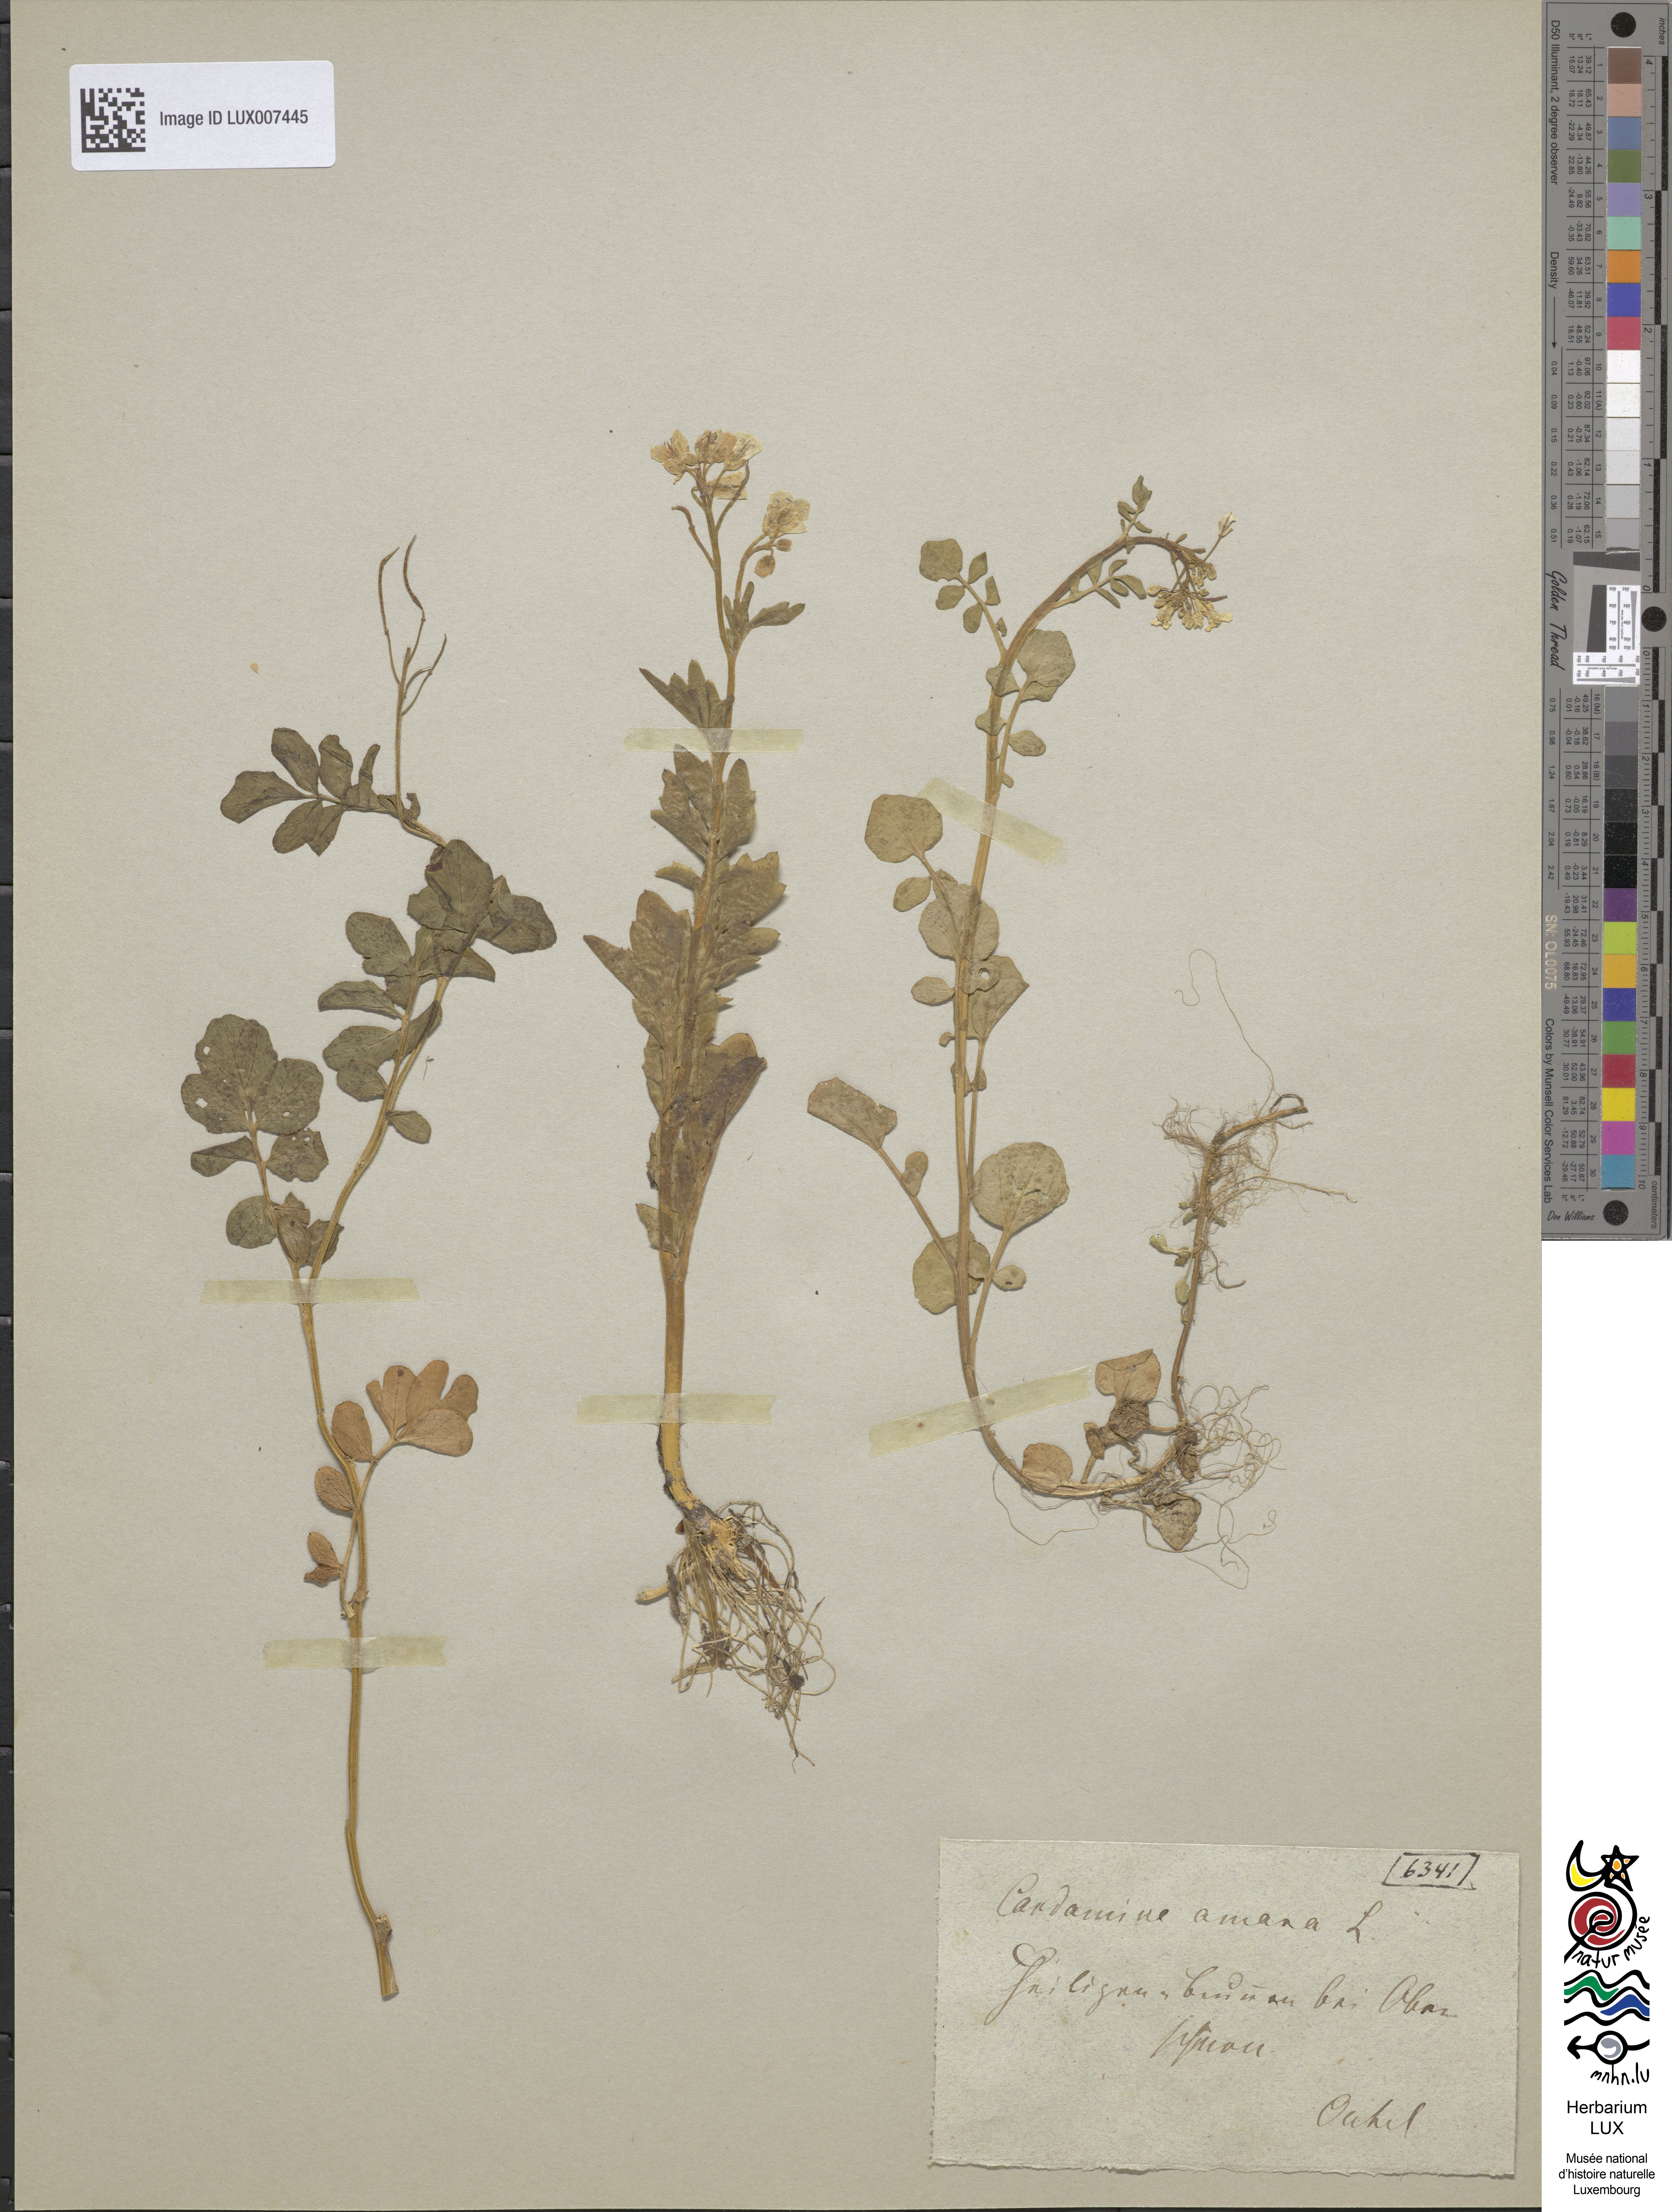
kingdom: Plantae
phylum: Tracheophyta
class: Magnoliopsida
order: Brassicales
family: Brassicaceae
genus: Cardamine
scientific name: Cardamine amara
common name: Large bitter-cress
